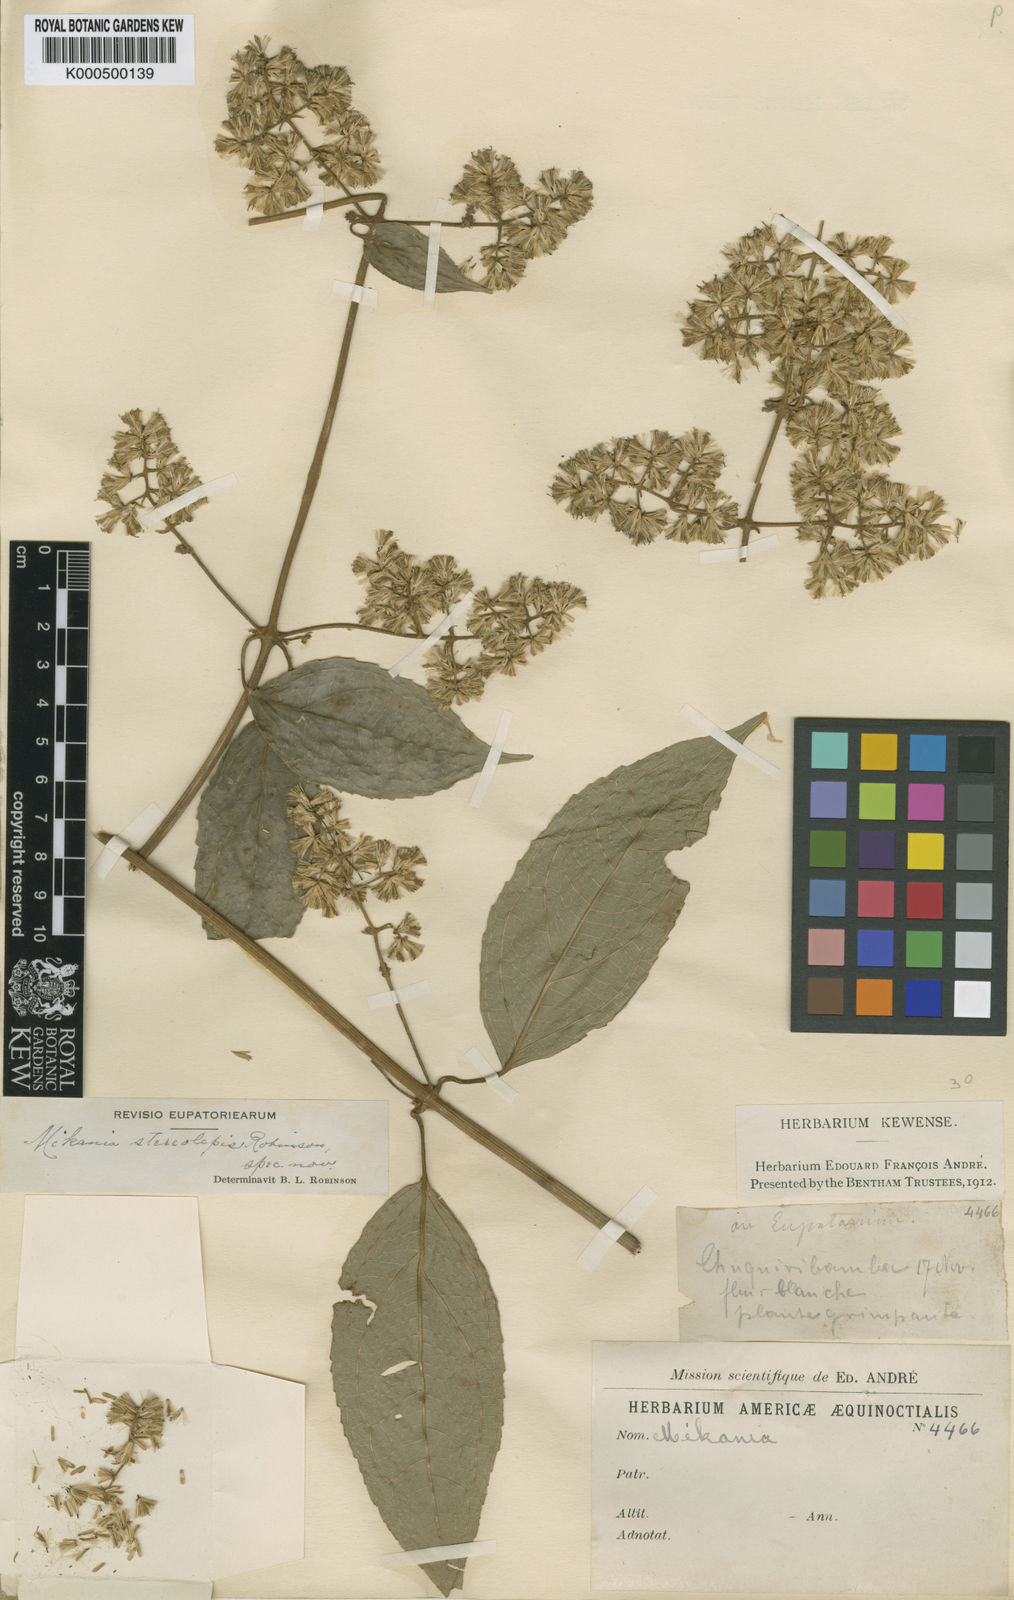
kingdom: Plantae
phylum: Tracheophyta
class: Magnoliopsida
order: Asterales
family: Asteraceae
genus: Mikania
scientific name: Mikania stereolepis
